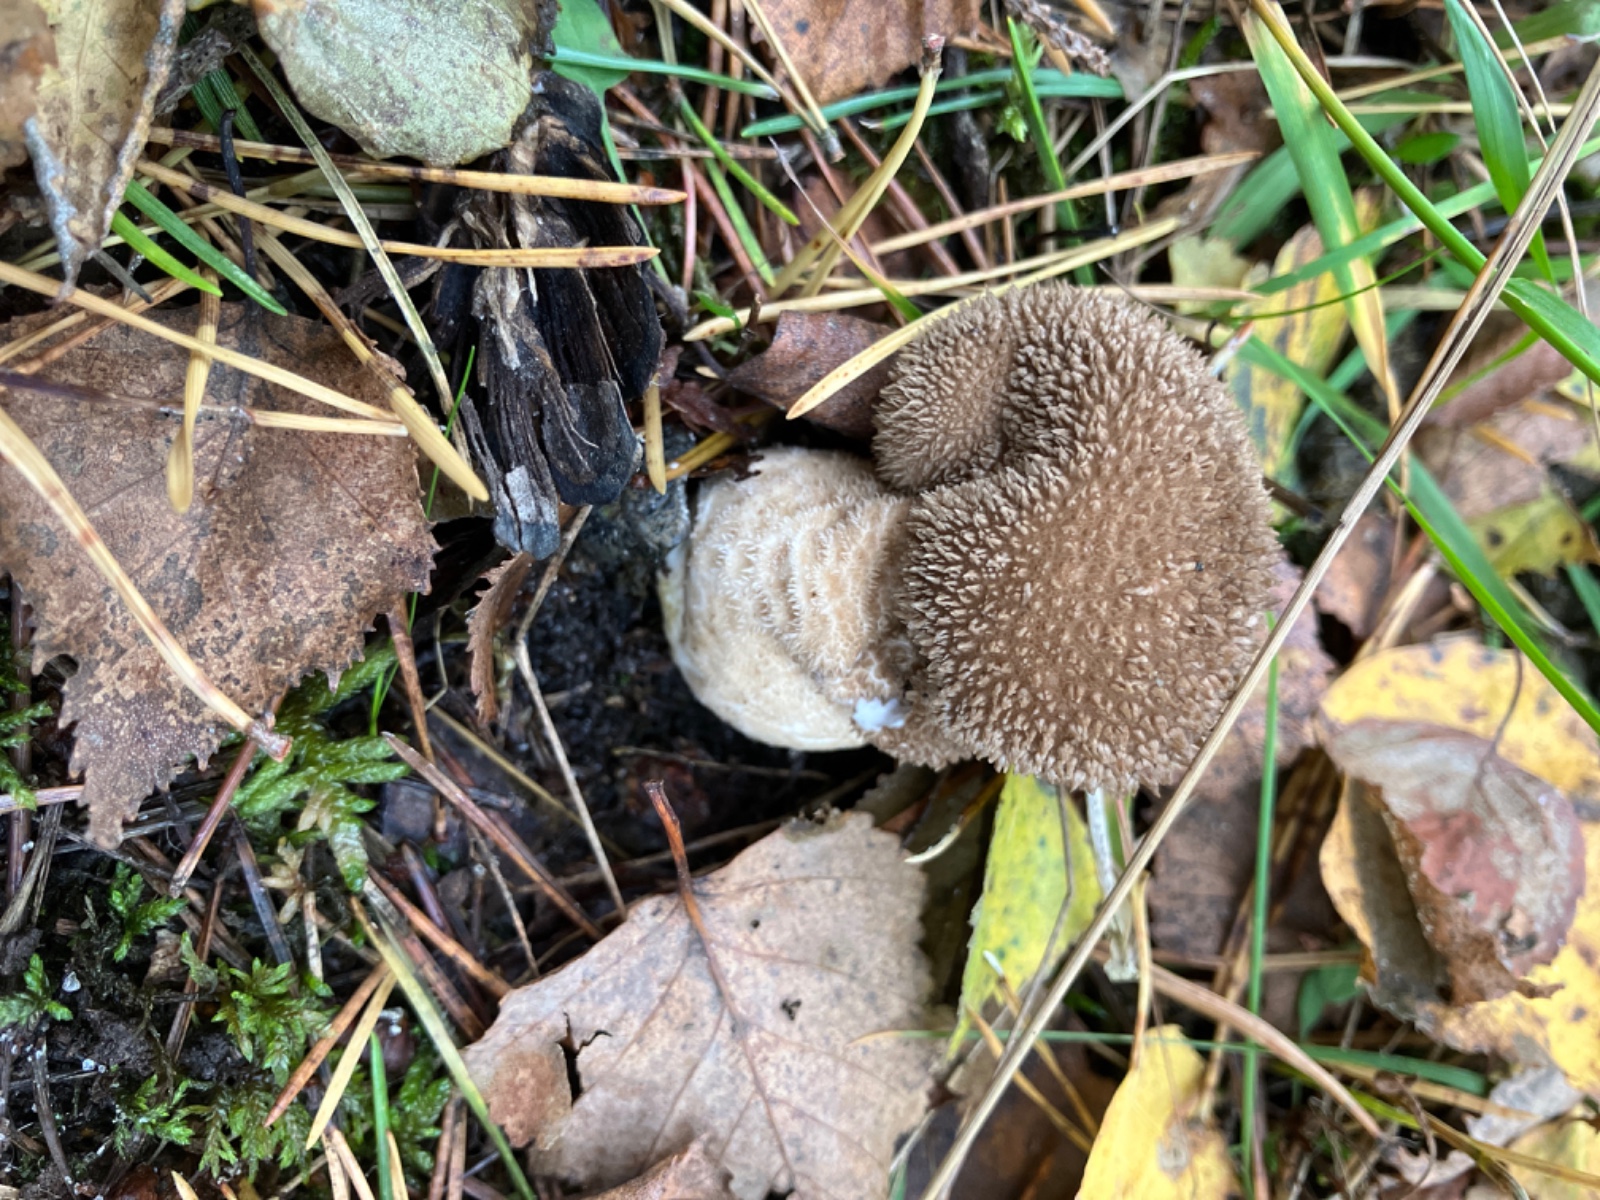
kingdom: Fungi
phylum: Basidiomycota
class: Agaricomycetes
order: Agaricales
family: Lycoperdaceae
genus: Lycoperdon
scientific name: Lycoperdon nigrescens
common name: sortagtig støvbold
